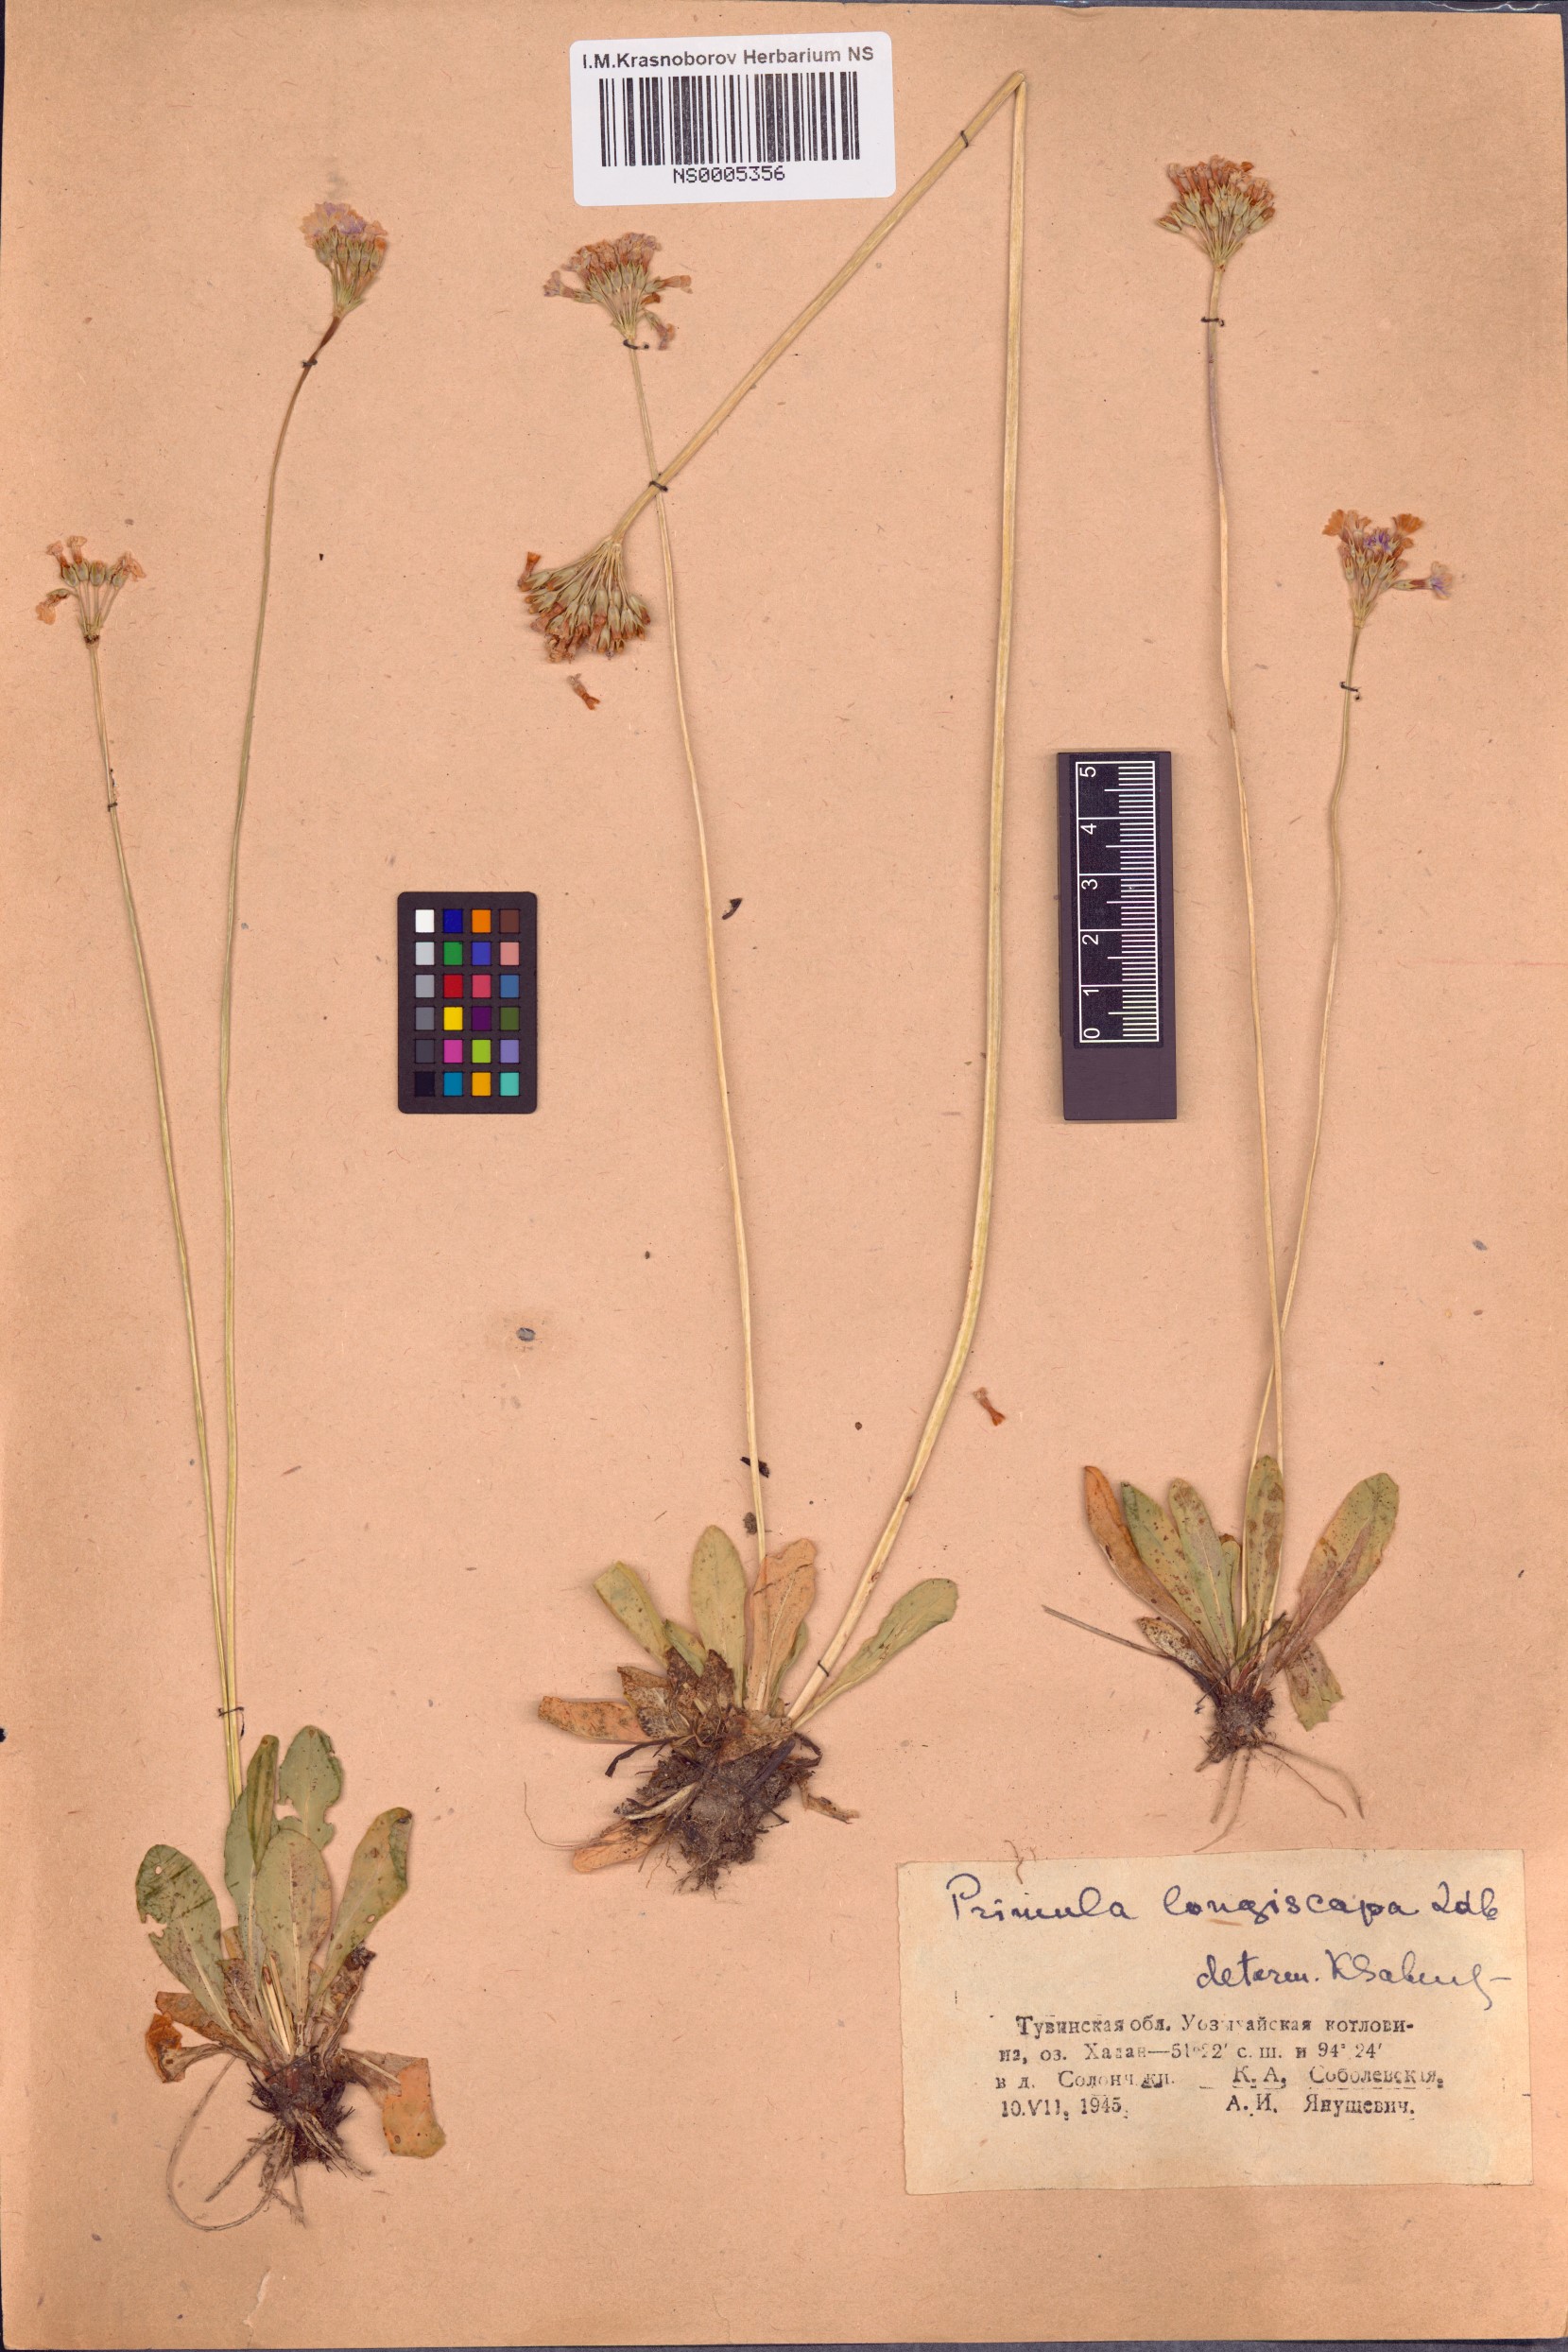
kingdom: Plantae
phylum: Tracheophyta
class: Magnoliopsida
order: Ericales
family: Primulaceae
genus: Primula
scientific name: Primula longiscapa
